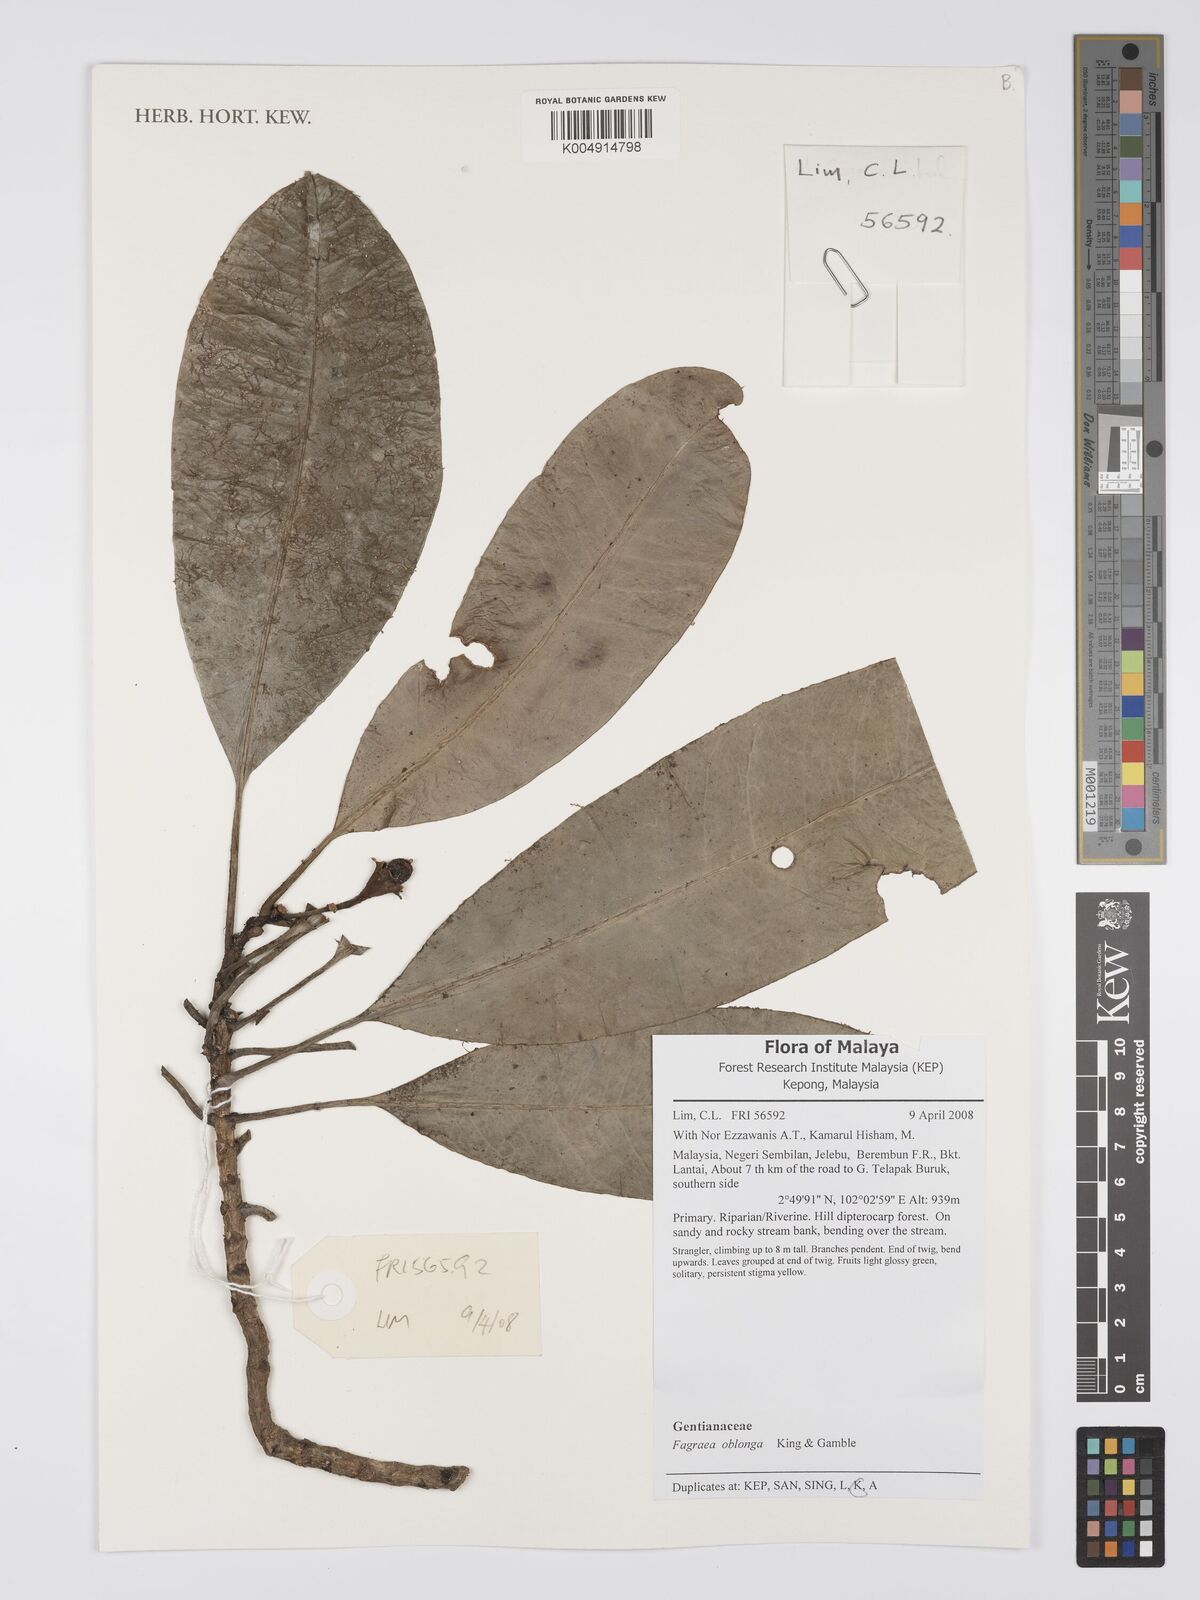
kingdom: Plantae
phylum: Tracheophyta
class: Magnoliopsida
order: Gentianales
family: Gentianaceae
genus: Fagraea
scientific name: Fagraea oblonga
